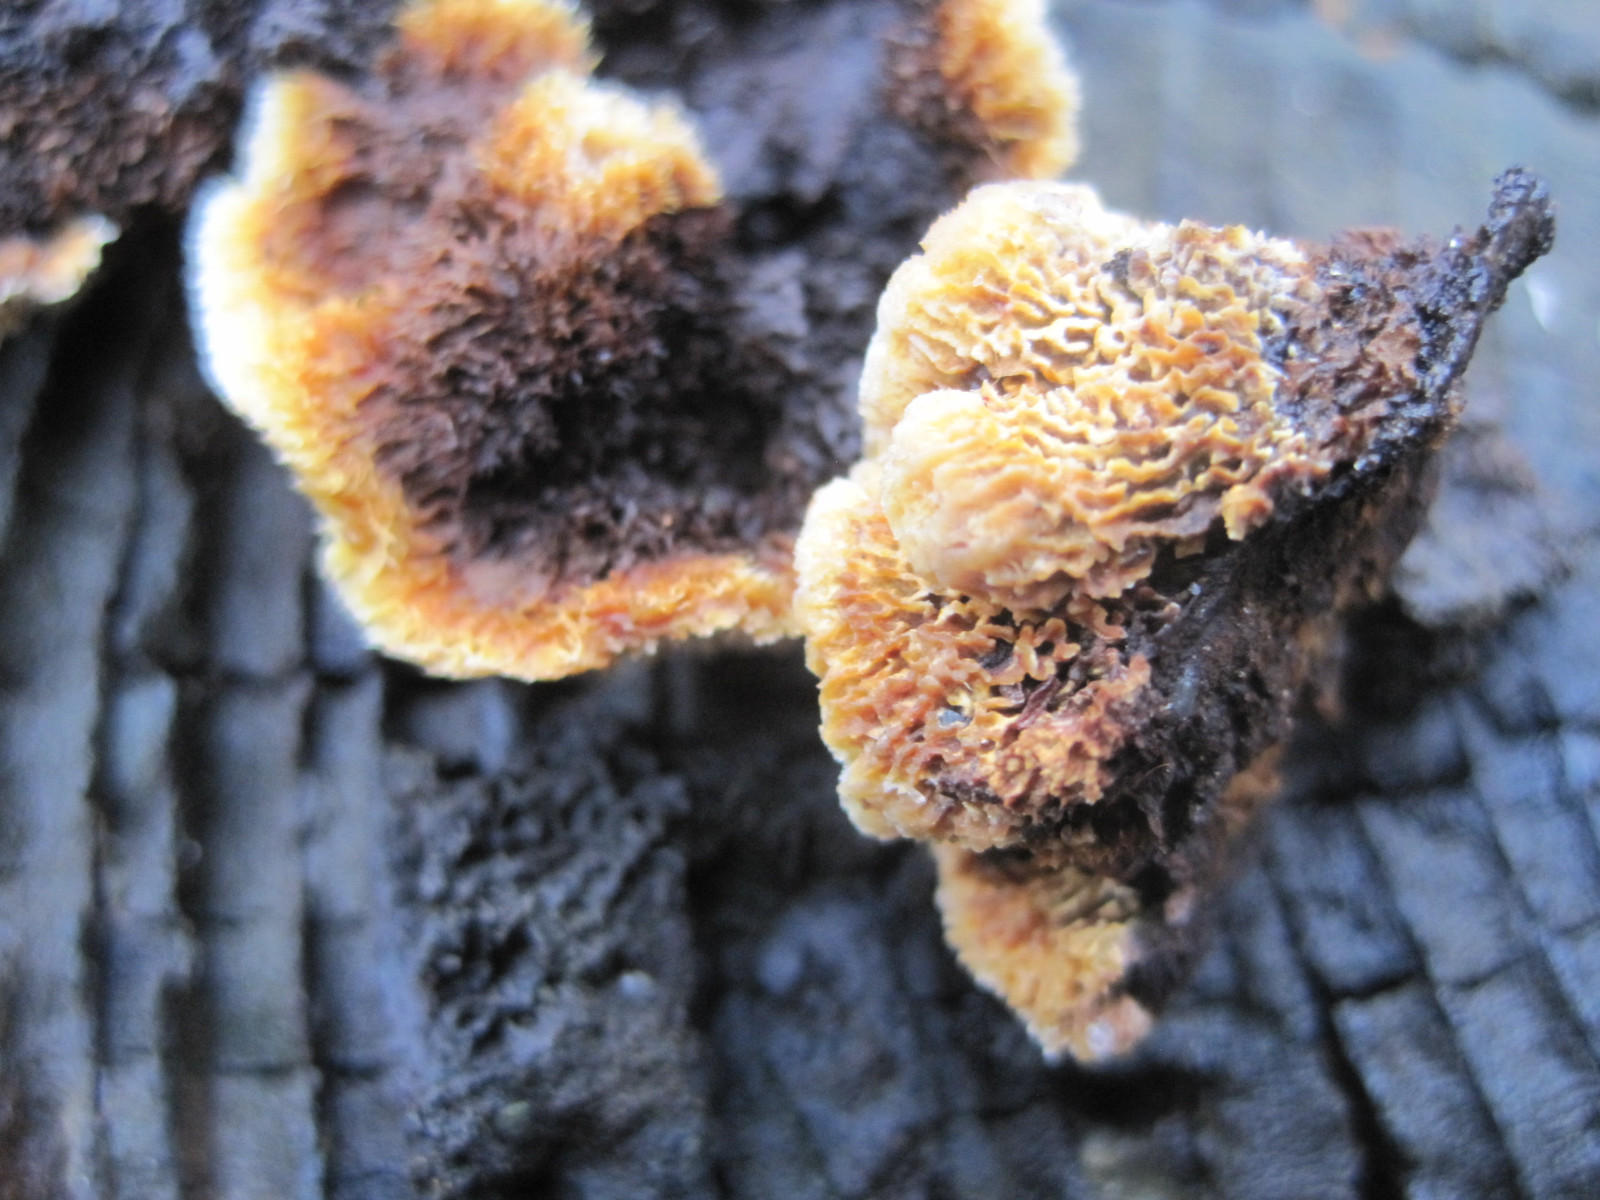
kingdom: Fungi
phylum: Basidiomycota
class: Agaricomycetes
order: Gloeophyllales
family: Gloeophyllaceae
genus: Gloeophyllum
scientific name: Gloeophyllum sepiarium
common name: fyrre-korkhat
